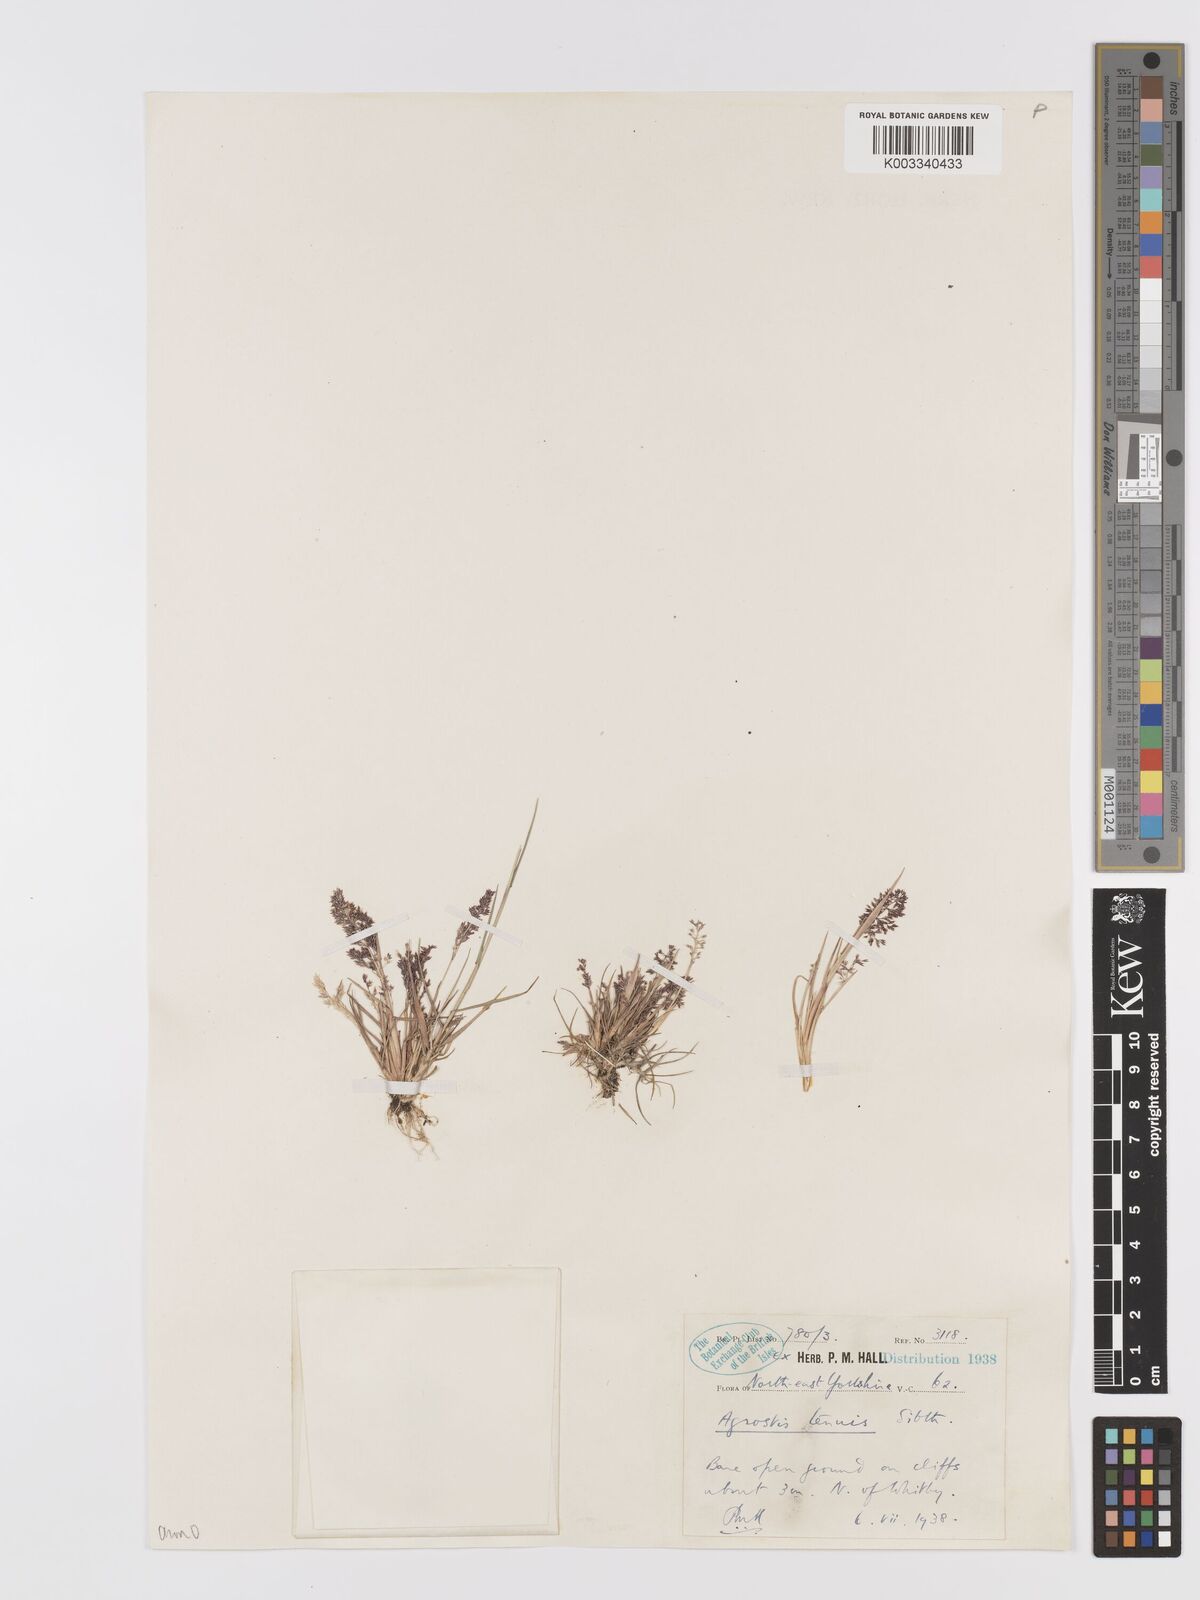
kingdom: Plantae
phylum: Tracheophyta
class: Liliopsida
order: Poales
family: Poaceae
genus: Agrostis
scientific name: Agrostis capillaris
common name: Colonial bentgrass
